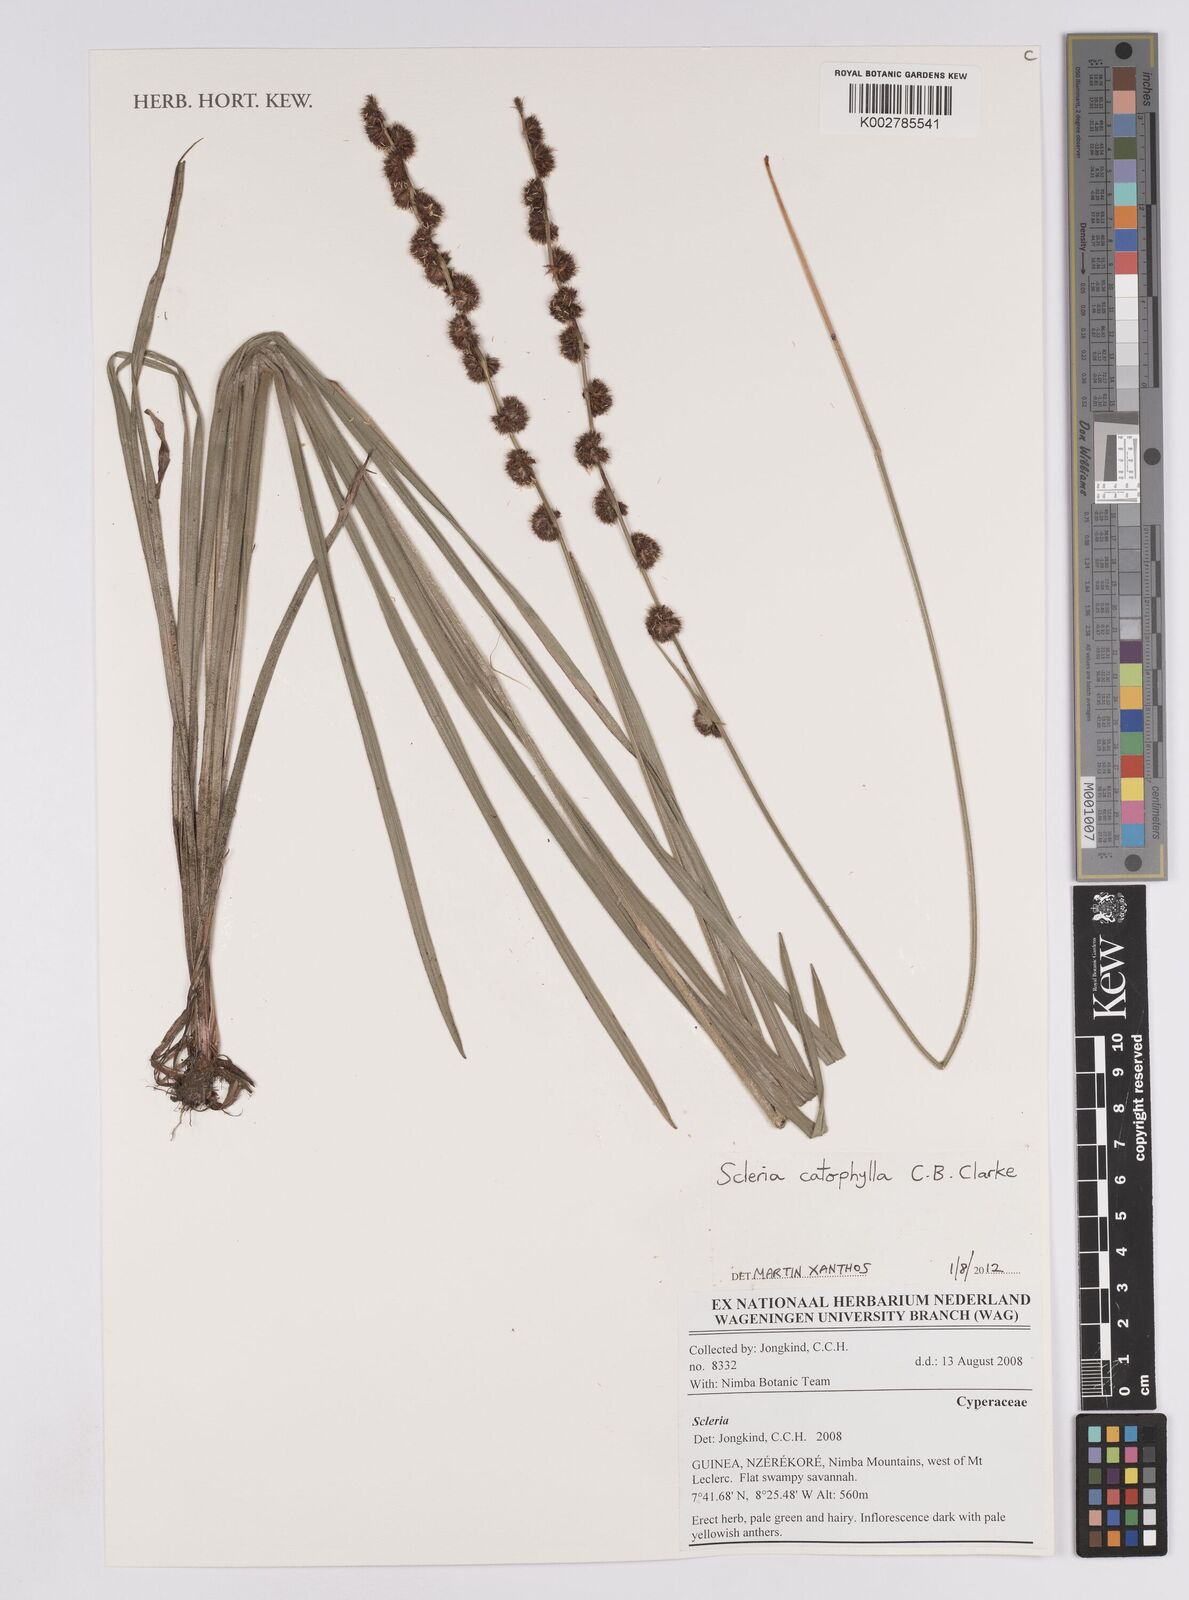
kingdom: Plantae
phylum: Tracheophyta
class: Liliopsida
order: Poales
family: Cyperaceae
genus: Scleria
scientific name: Scleria catophylla
